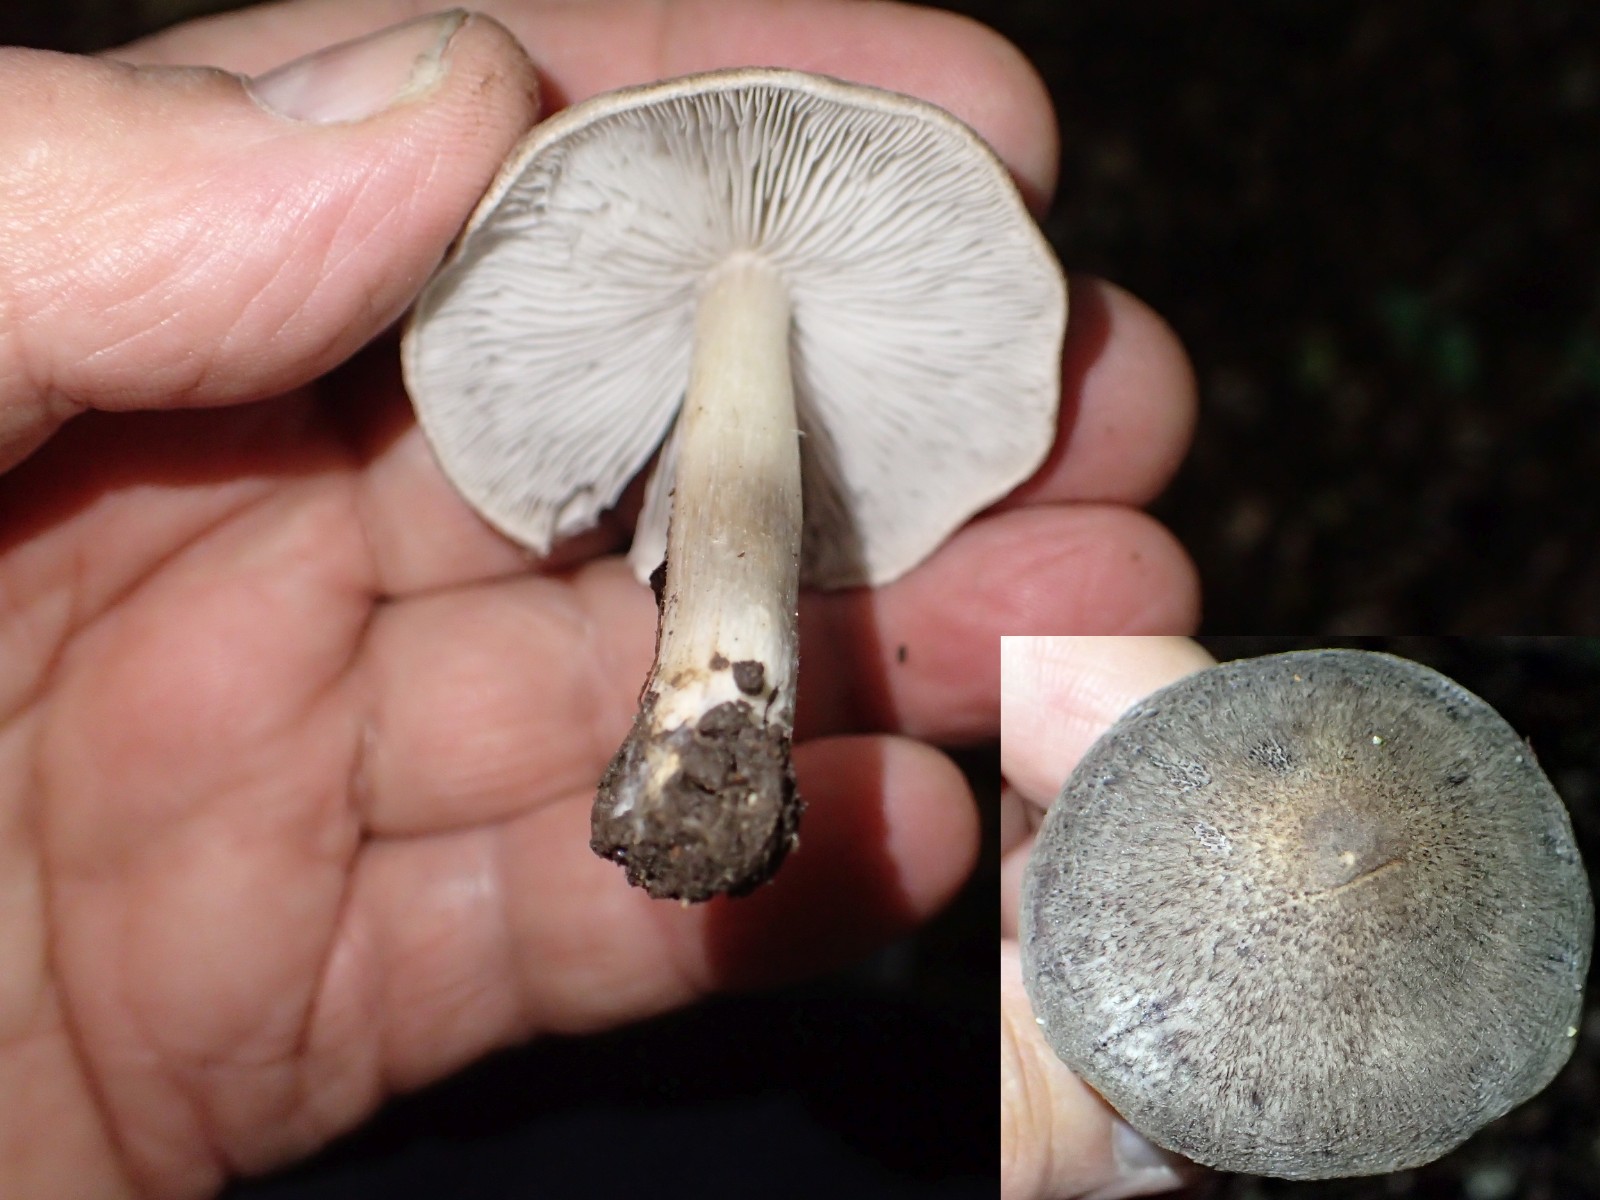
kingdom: Fungi
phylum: Basidiomycota
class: Agaricomycetes
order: Agaricales
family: Tricholomataceae
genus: Tricholoma
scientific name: Tricholoma scalpturatum
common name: gulplettet ridderhat
